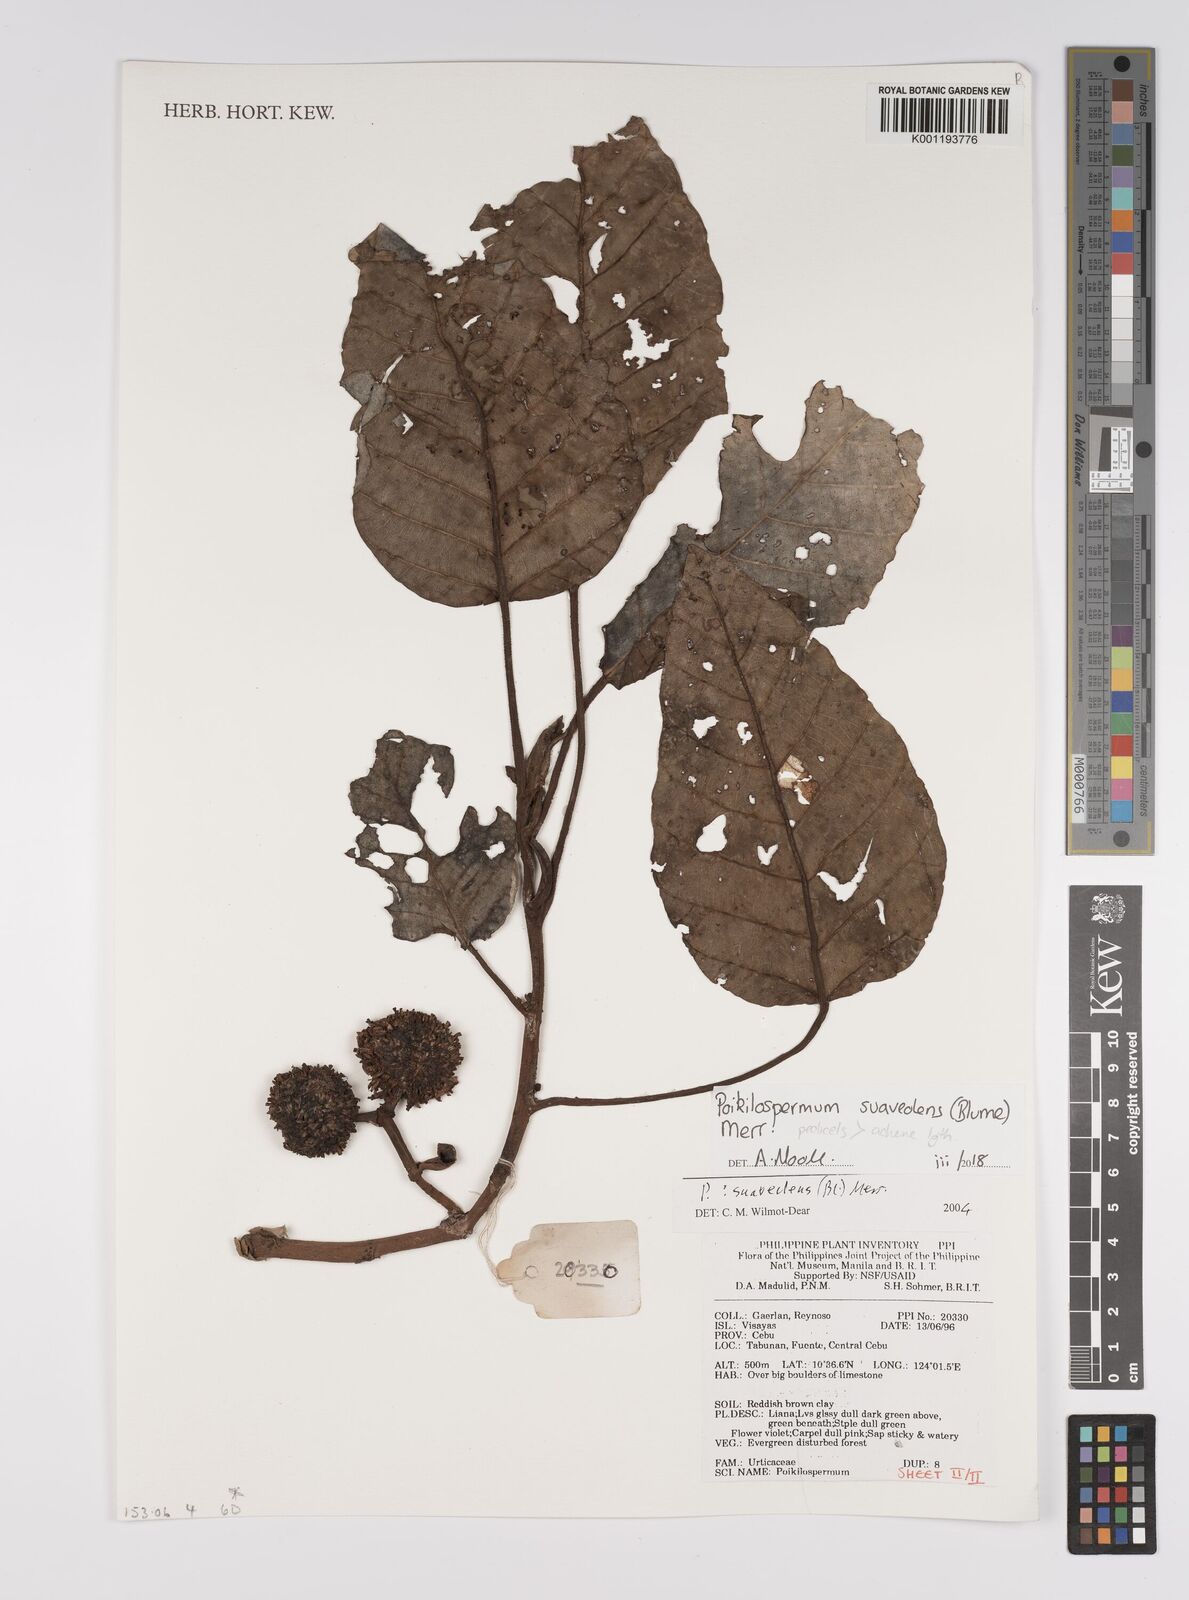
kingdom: Plantae
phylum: Tracheophyta
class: Magnoliopsida
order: Rosales
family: Urticaceae
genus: Poikilospermum
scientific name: Poikilospermum suaveolens
